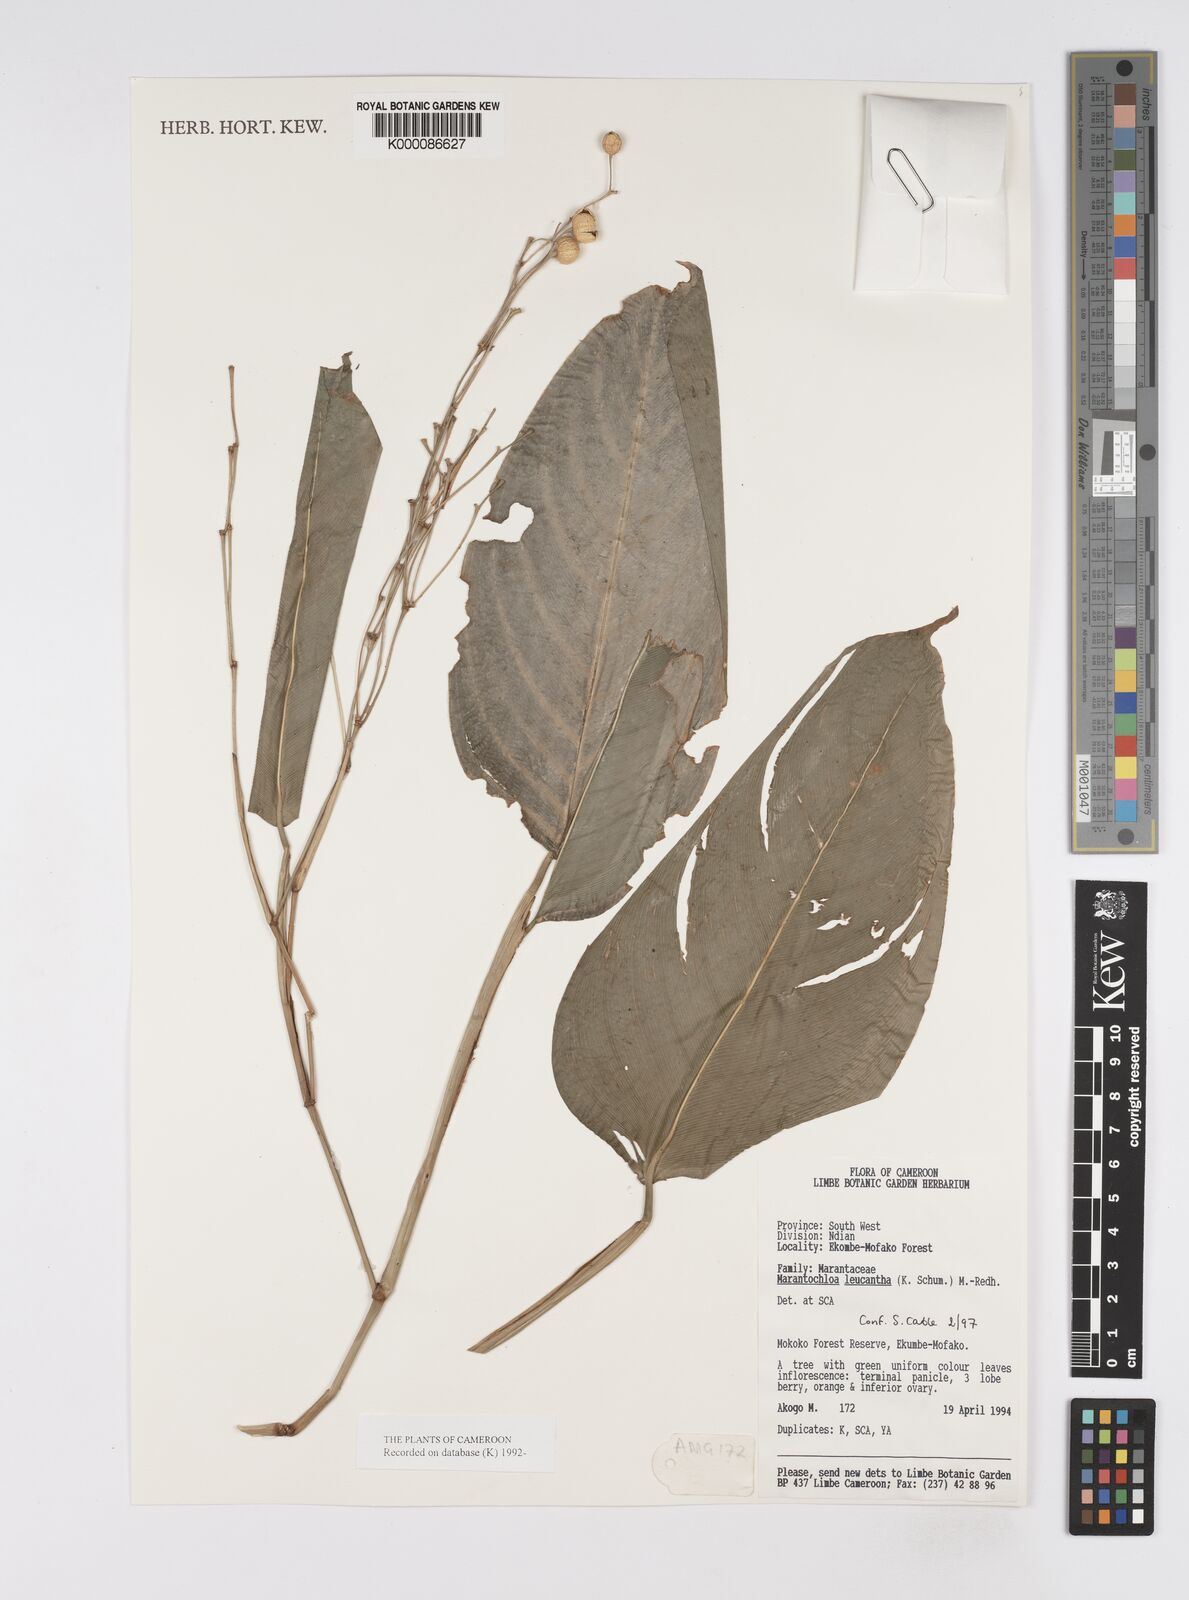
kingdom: Plantae
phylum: Tracheophyta
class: Liliopsida
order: Zingiberales
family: Marantaceae
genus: Marantochloa
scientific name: Marantochloa leucantha
